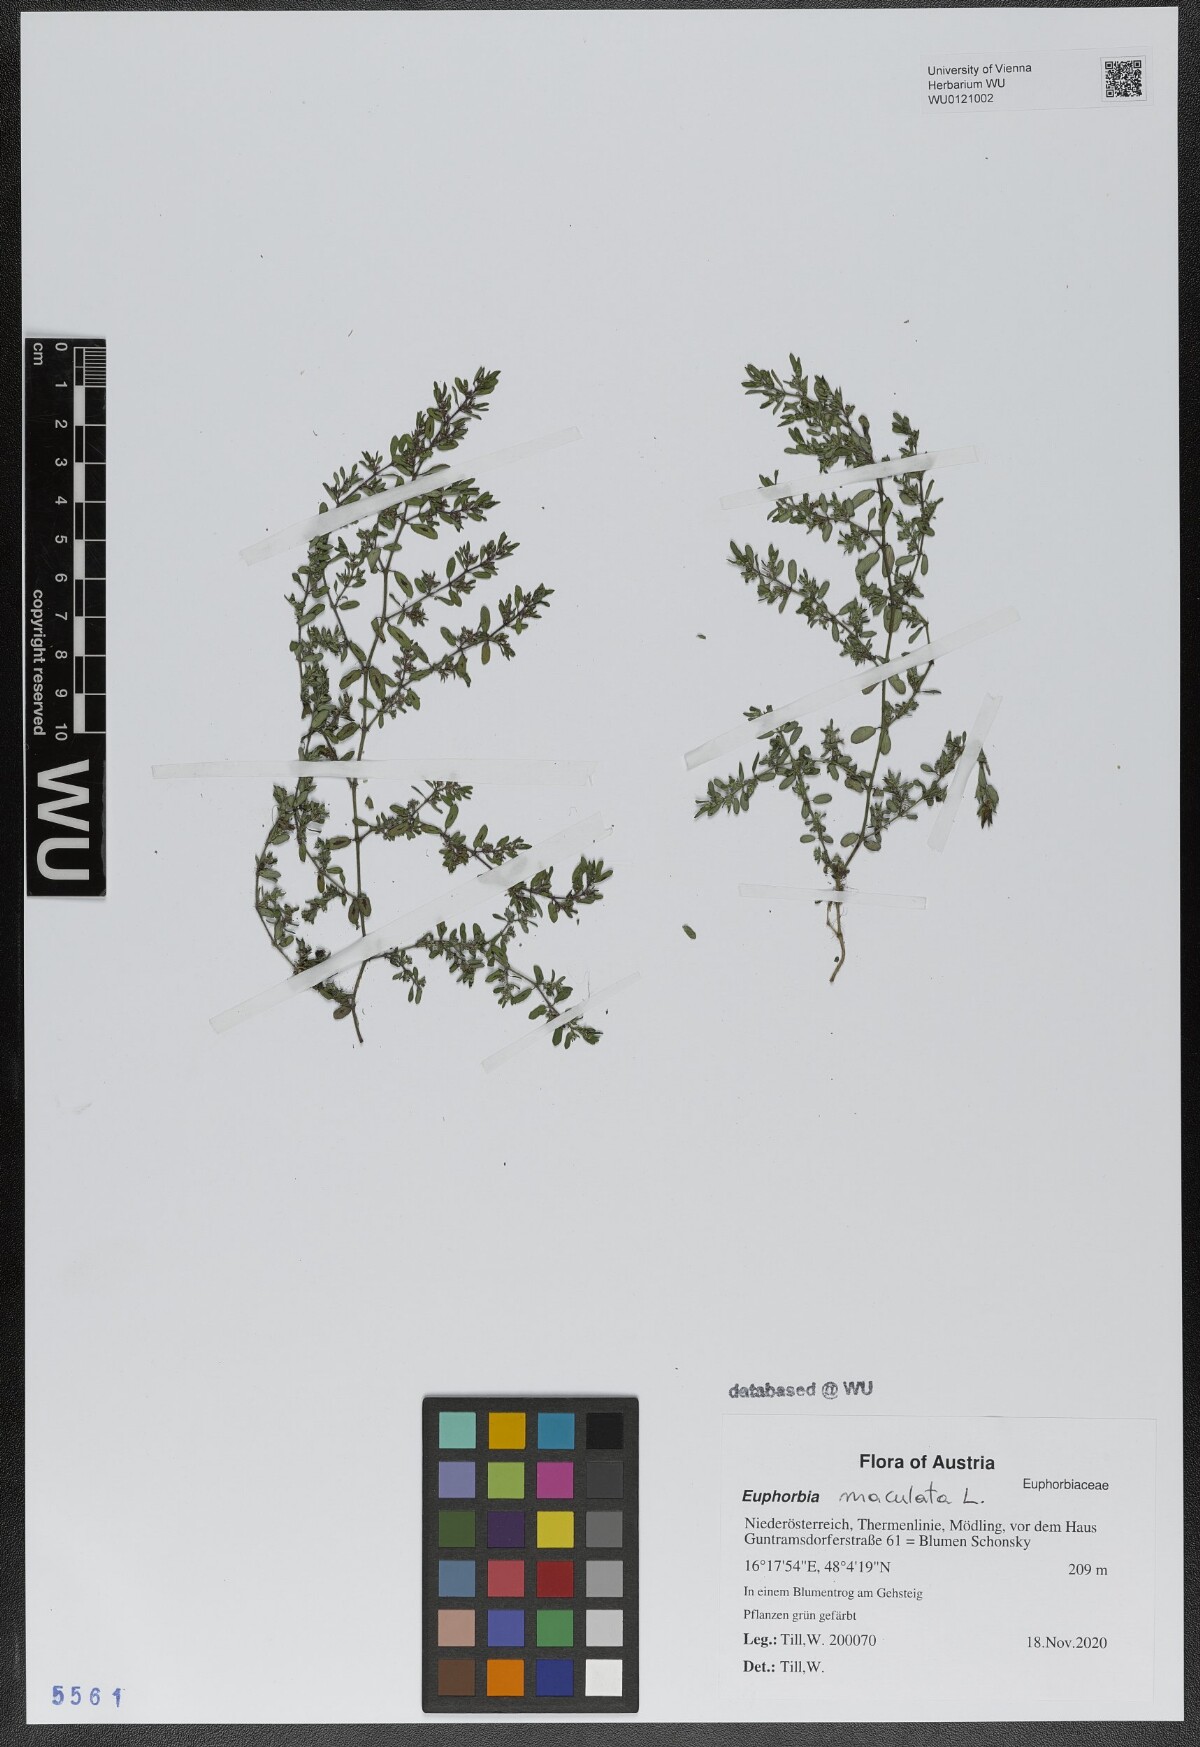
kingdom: Plantae
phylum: Tracheophyta
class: Magnoliopsida
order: Malpighiales
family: Euphorbiaceae
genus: Euphorbia
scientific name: Euphorbia maculata
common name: Spotted spurge
